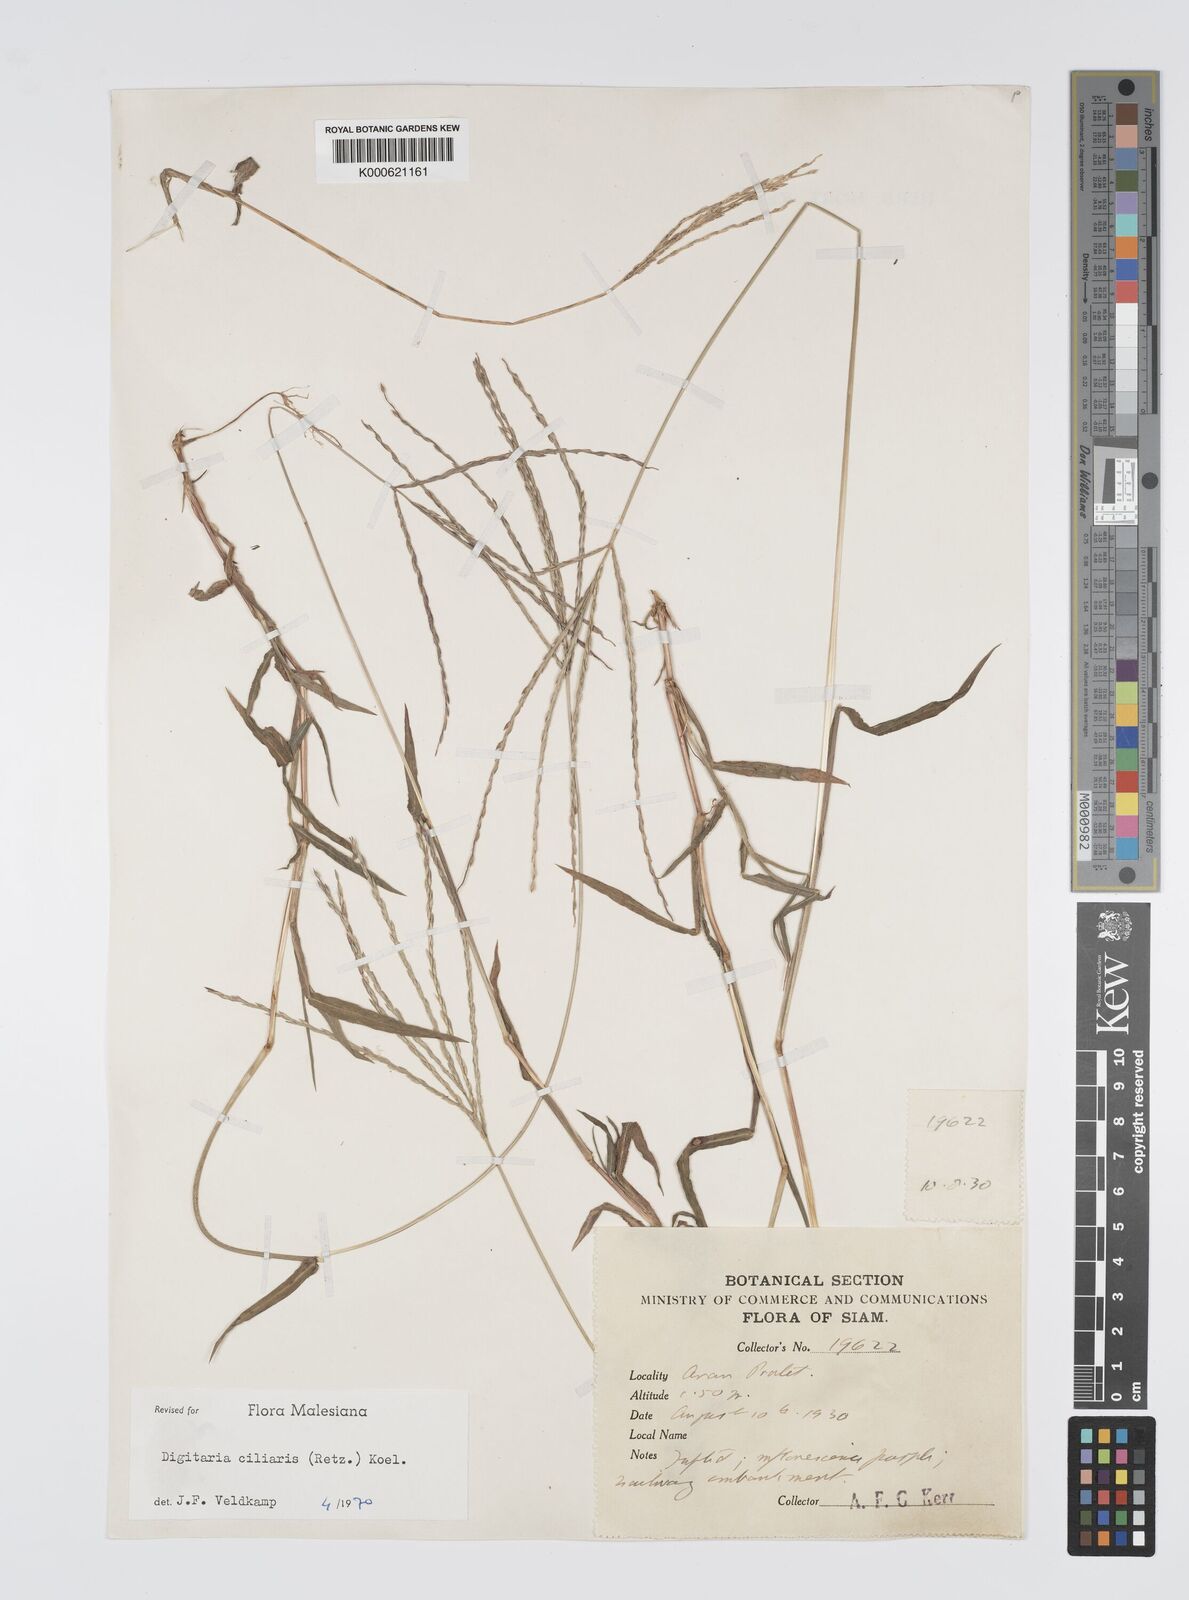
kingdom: Plantae
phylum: Tracheophyta
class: Liliopsida
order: Poales
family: Poaceae
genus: Digitaria
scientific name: Digitaria ciliaris
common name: Tropical finger-grass
